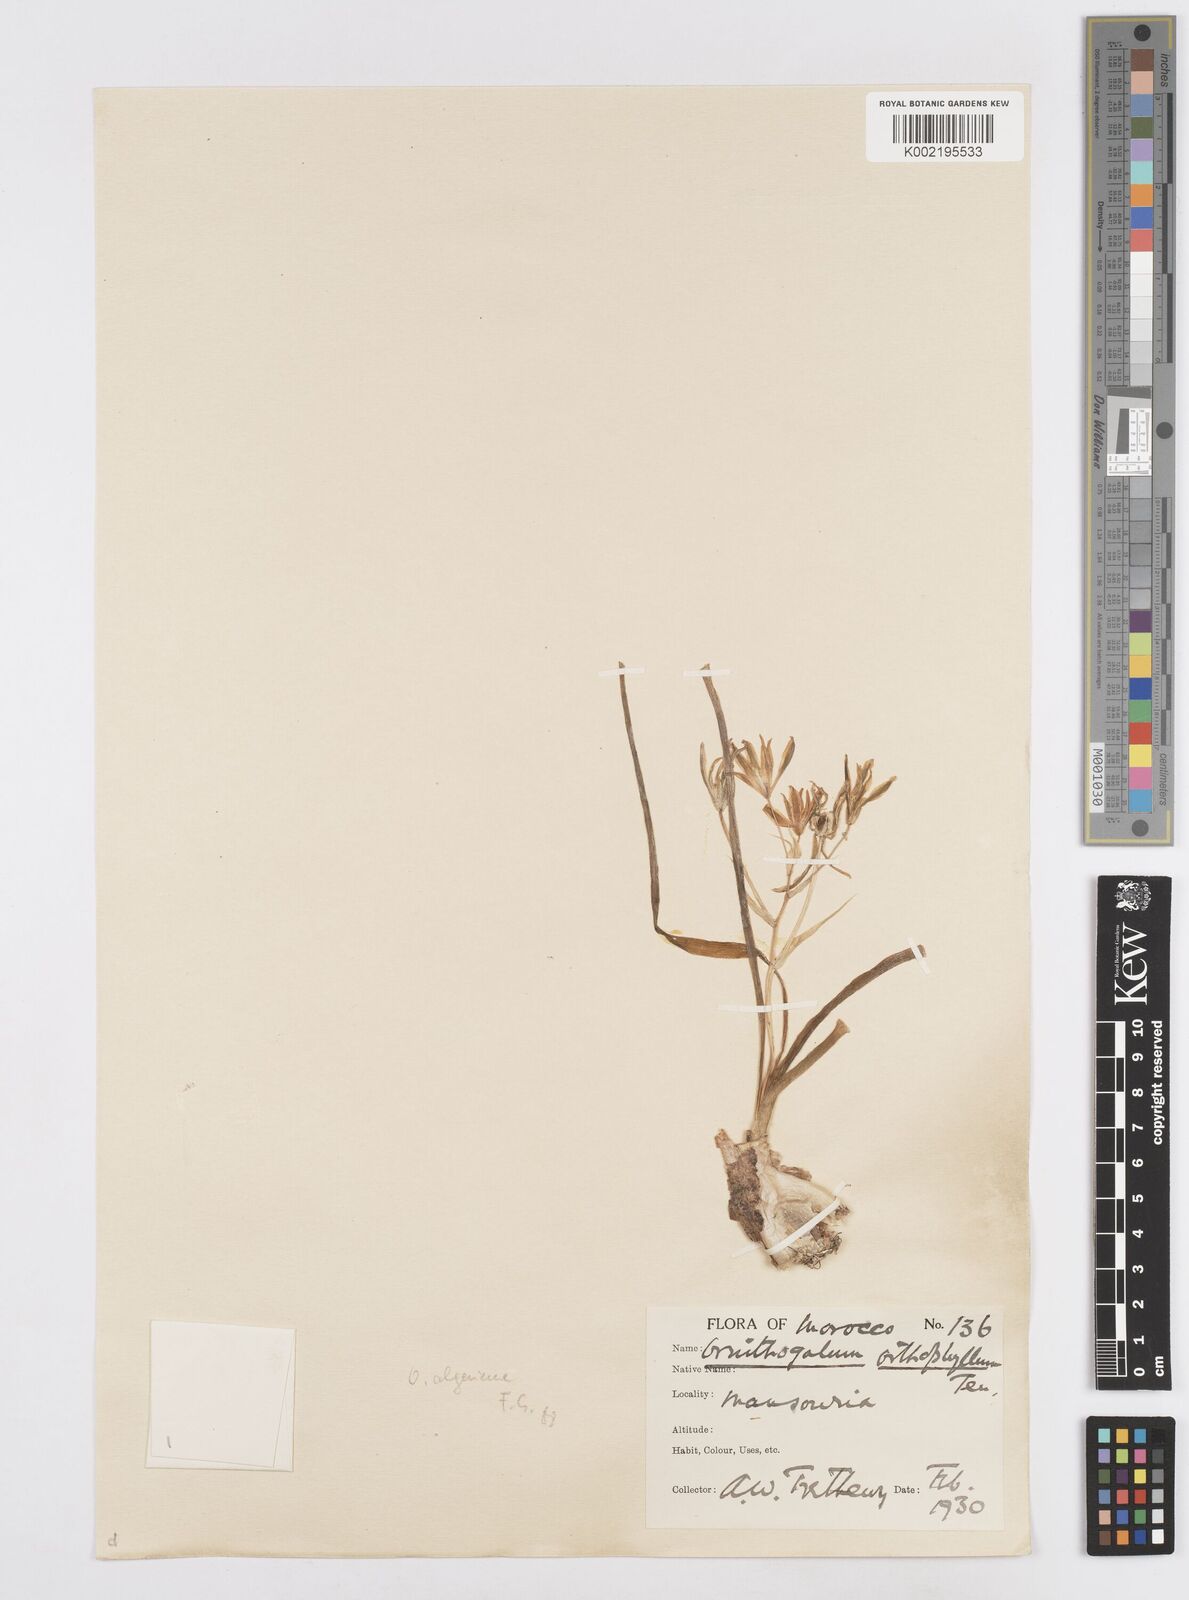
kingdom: Plantae
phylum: Tracheophyta
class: Liliopsida
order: Asparagales
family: Asparagaceae
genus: Ornithogalum
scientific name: Ornithogalum baeticum
